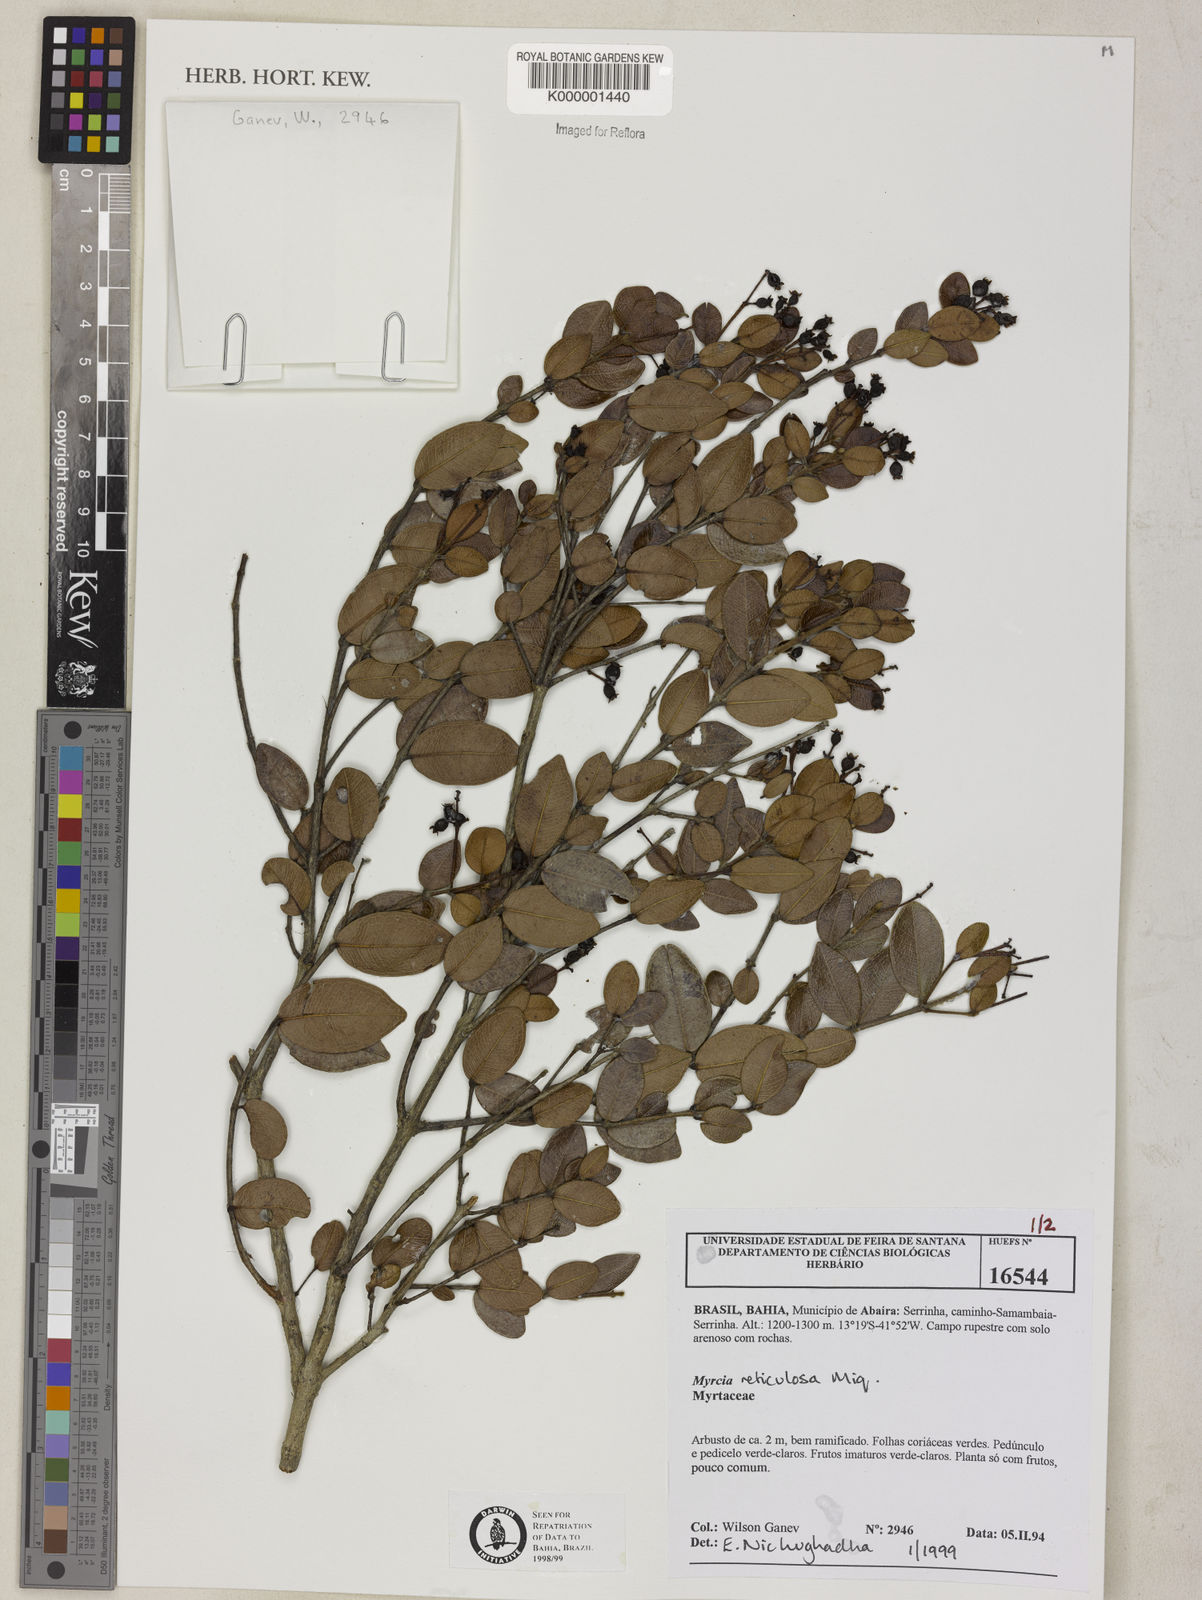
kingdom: Plantae
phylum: Tracheophyta
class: Magnoliopsida
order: Myrtales
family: Myrtaceae
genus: Myrcia
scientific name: Myrcia reticulosa
